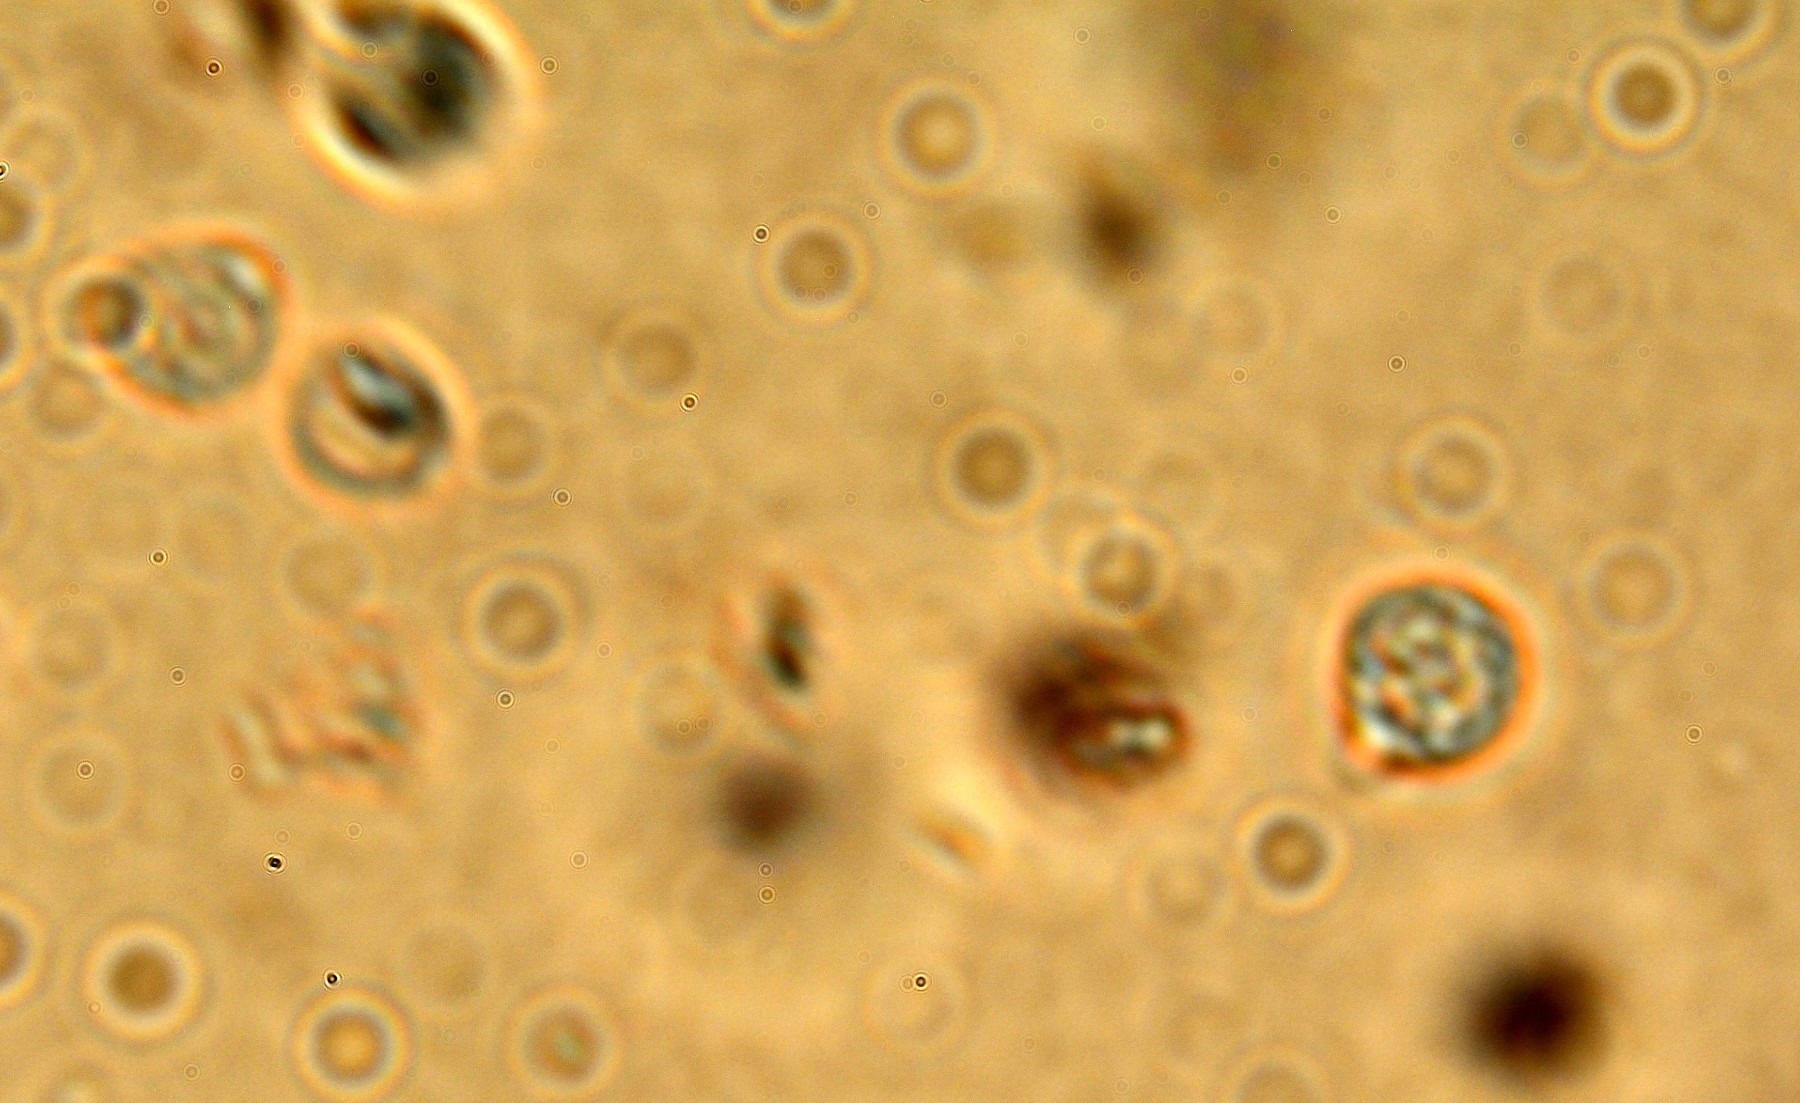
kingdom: Fungi
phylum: Basidiomycota
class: Agaricomycetes
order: Trechisporales
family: Hydnodontaceae
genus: Brevicellicium
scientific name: Brevicellicium olivascens
